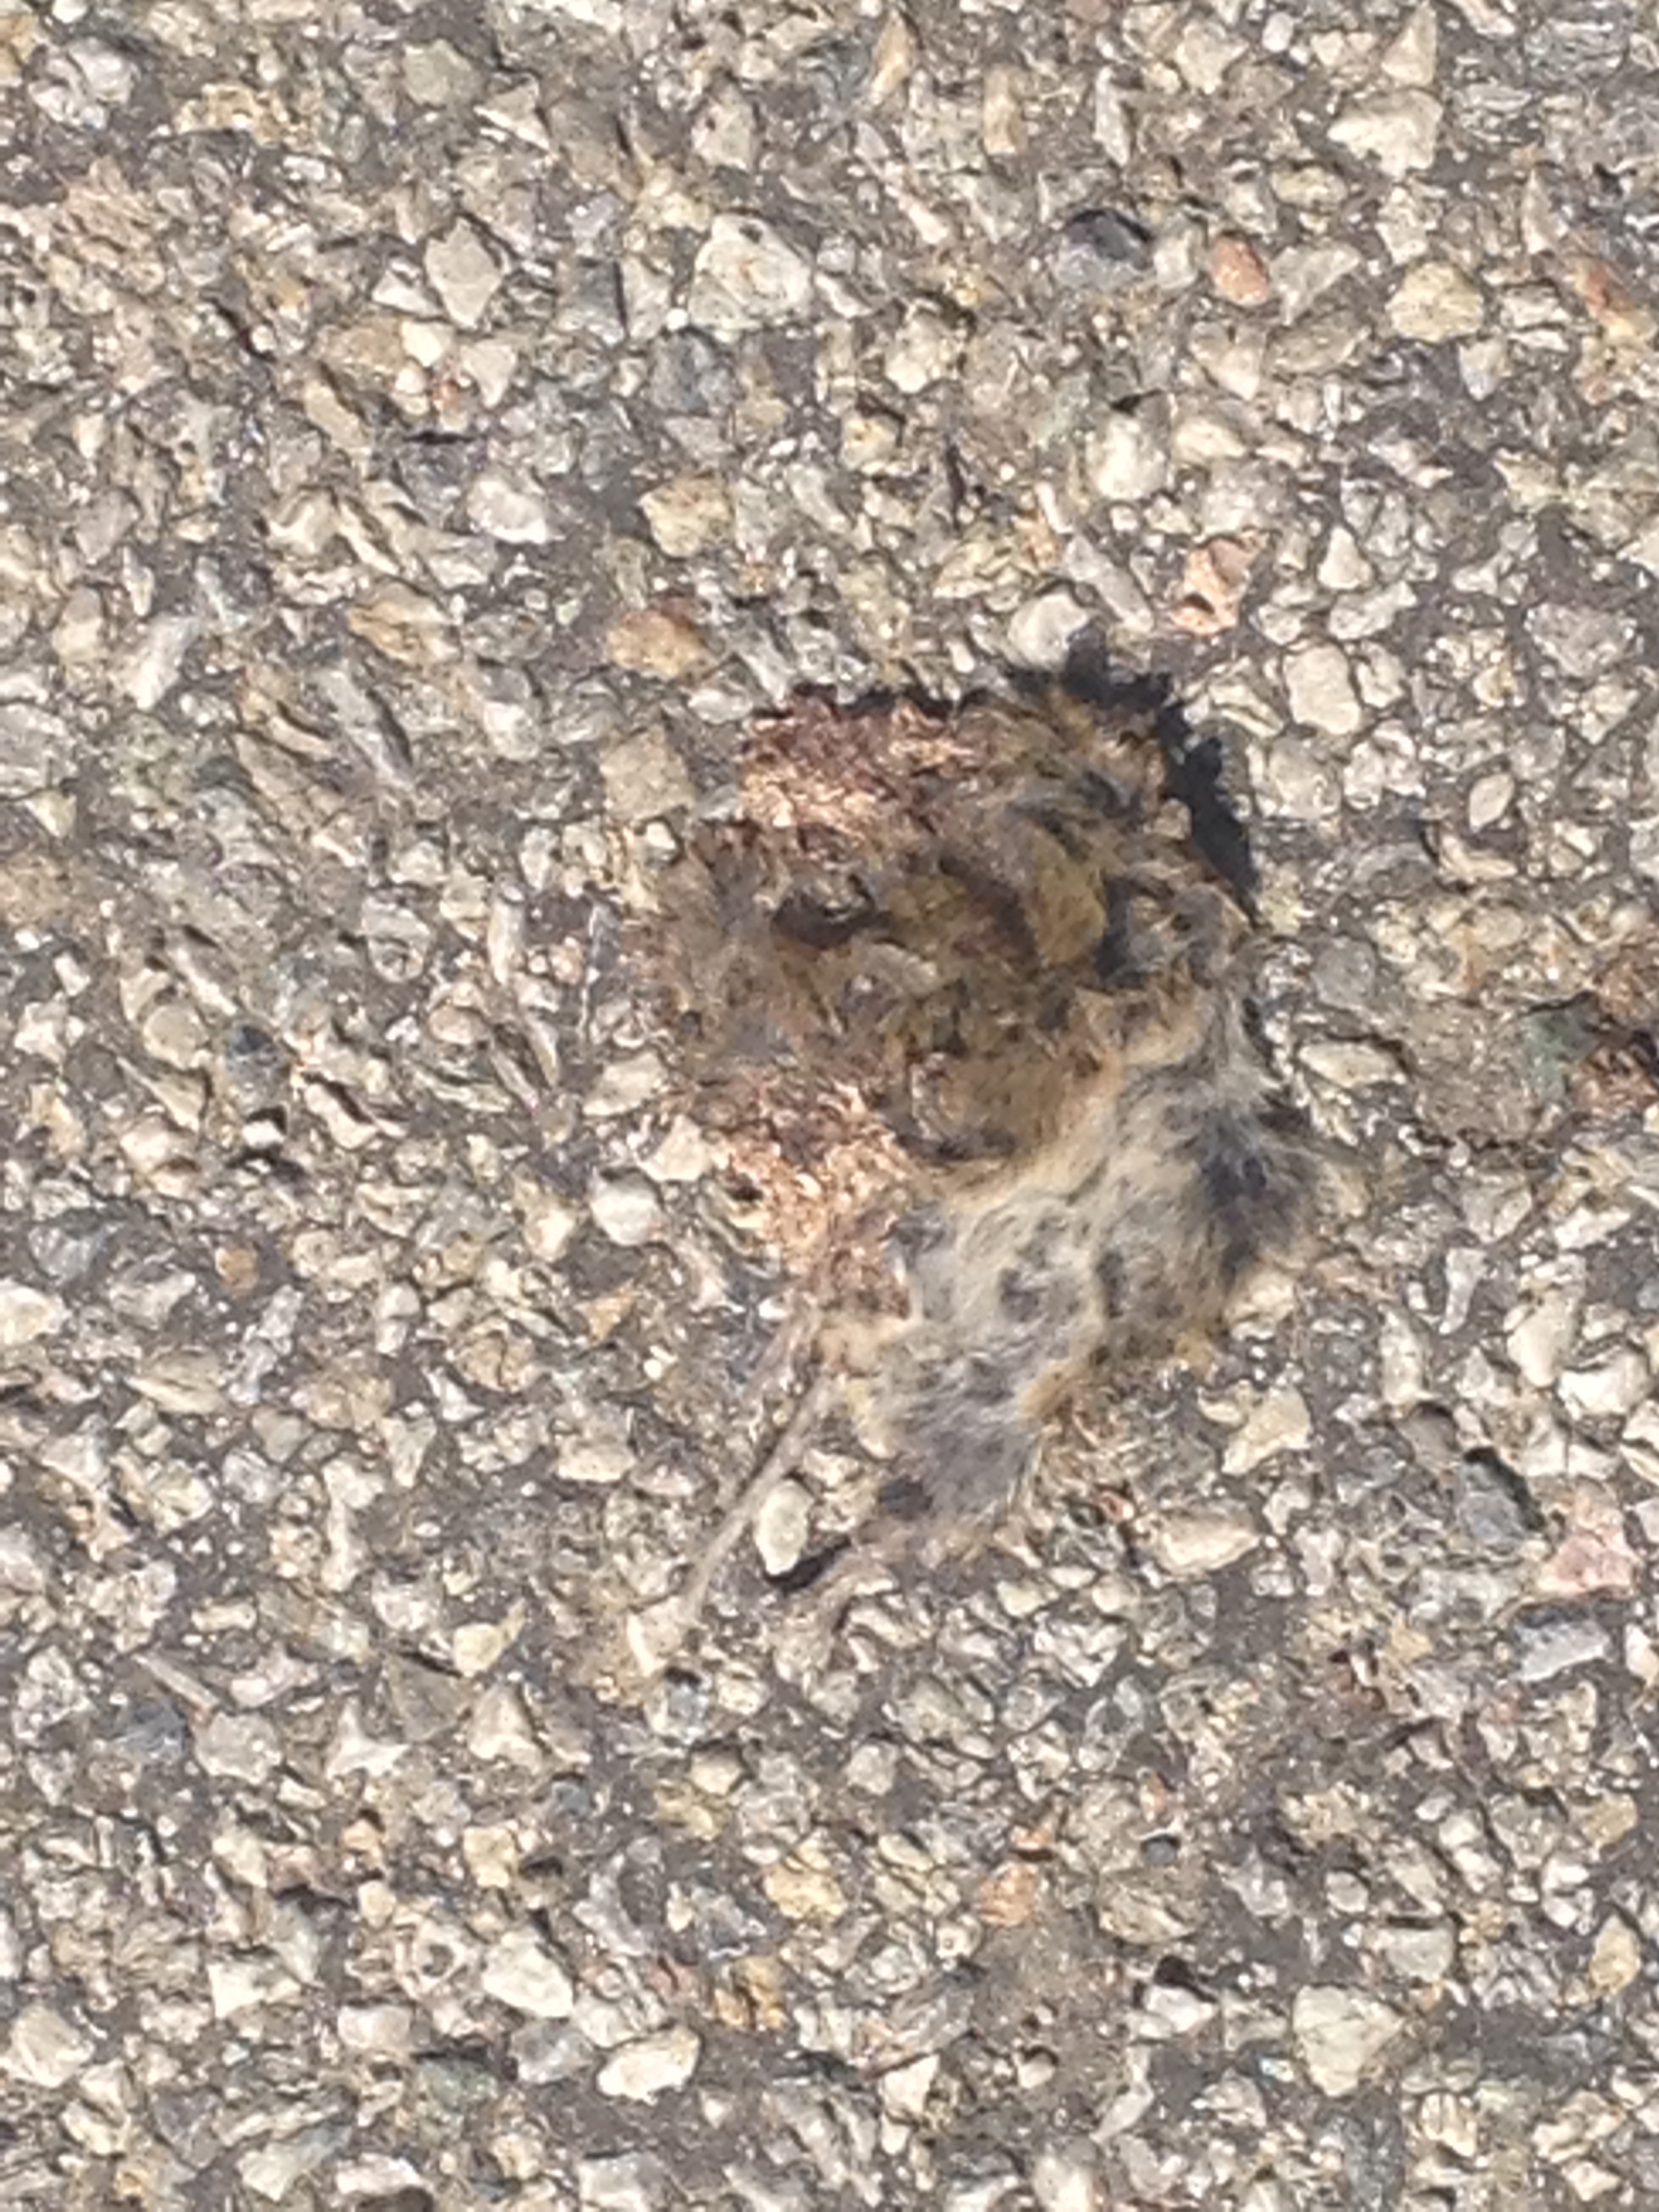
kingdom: Animalia
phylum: Chordata
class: Mammalia
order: Rodentia
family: Cricetidae
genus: Microtus
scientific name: Microtus
